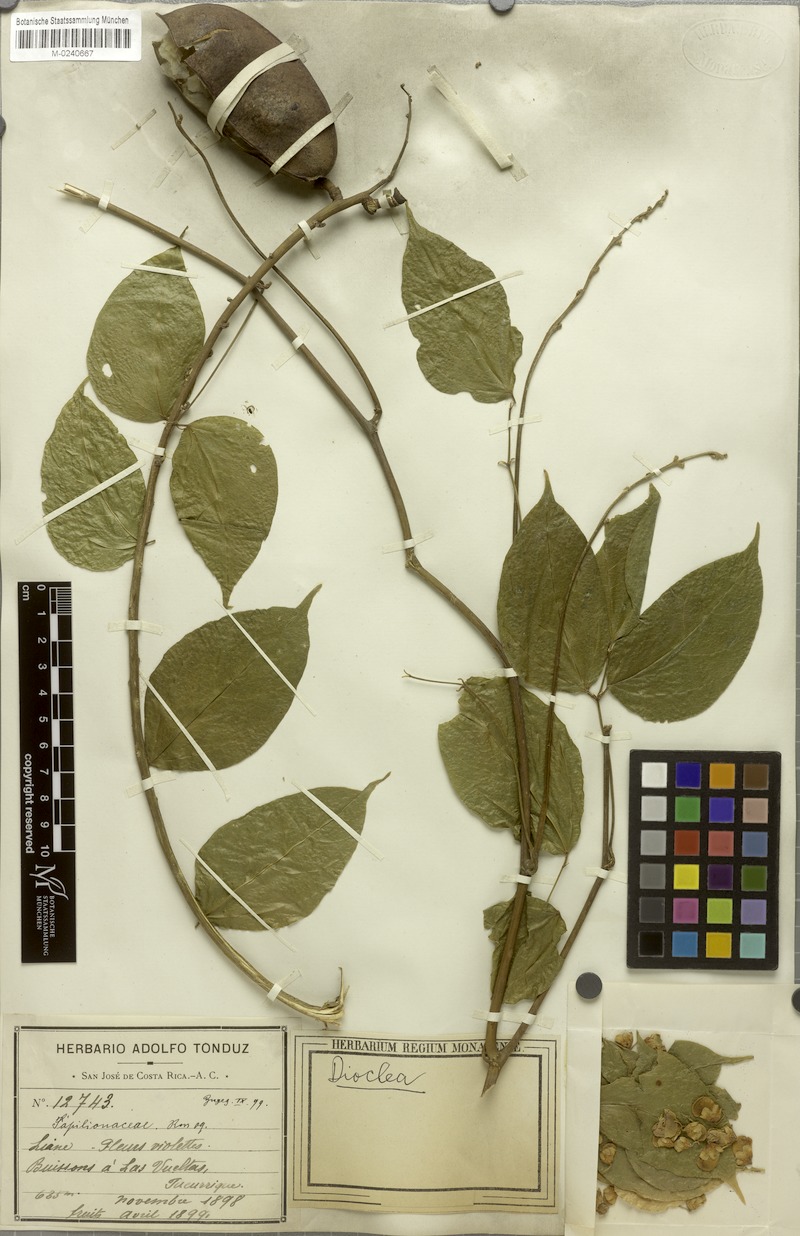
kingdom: Plantae
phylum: Tracheophyta
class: Magnoliopsida
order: Fabales
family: Fabaceae
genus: Oxyrhynchus
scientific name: Oxyrhynchus trinervius
